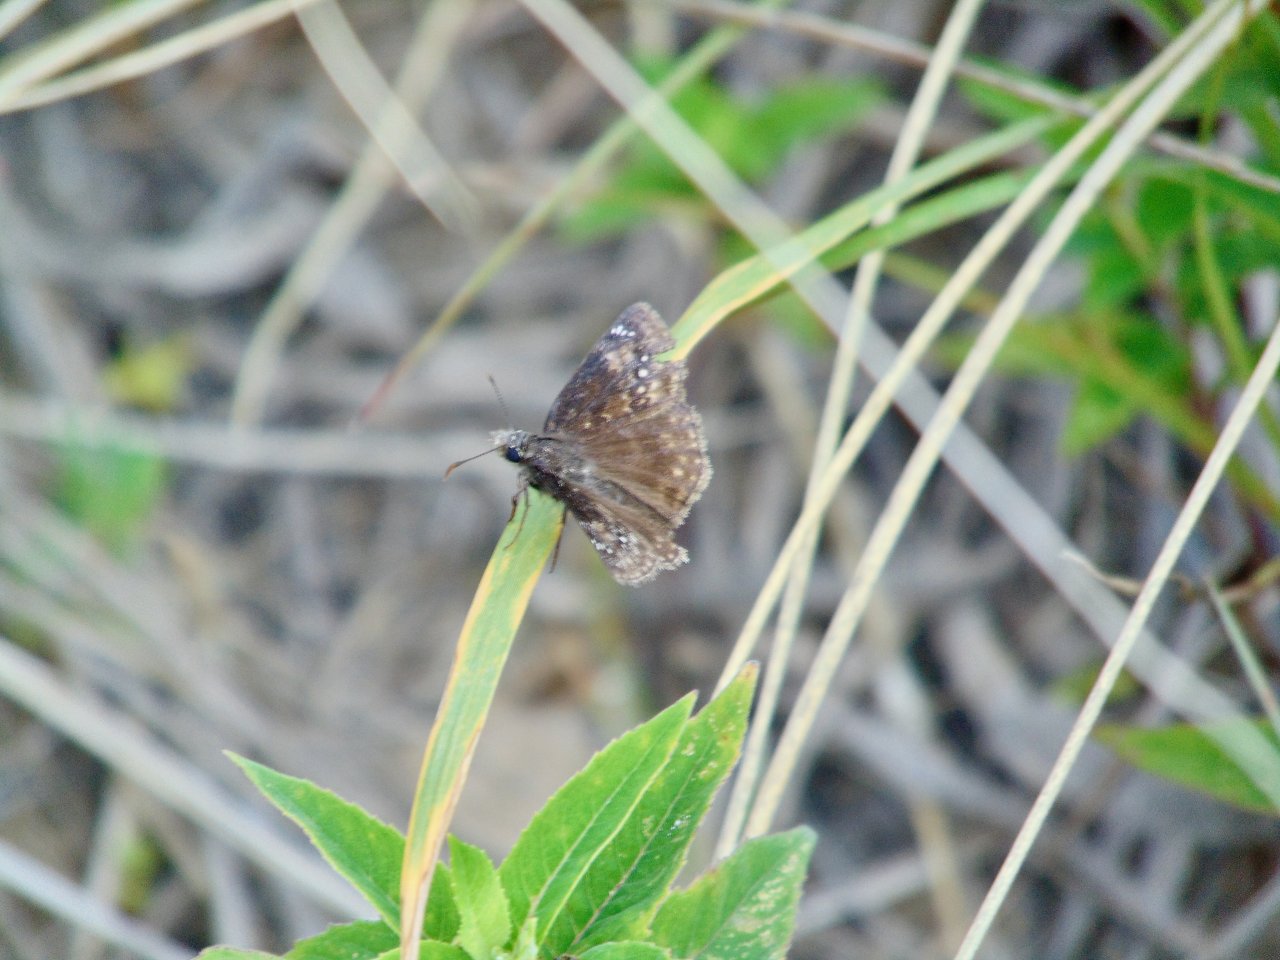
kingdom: Animalia
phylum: Arthropoda
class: Insecta
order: Lepidoptera
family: Hesperiidae
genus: Gesta
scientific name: Gesta
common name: Wild Indigo Duskywing
